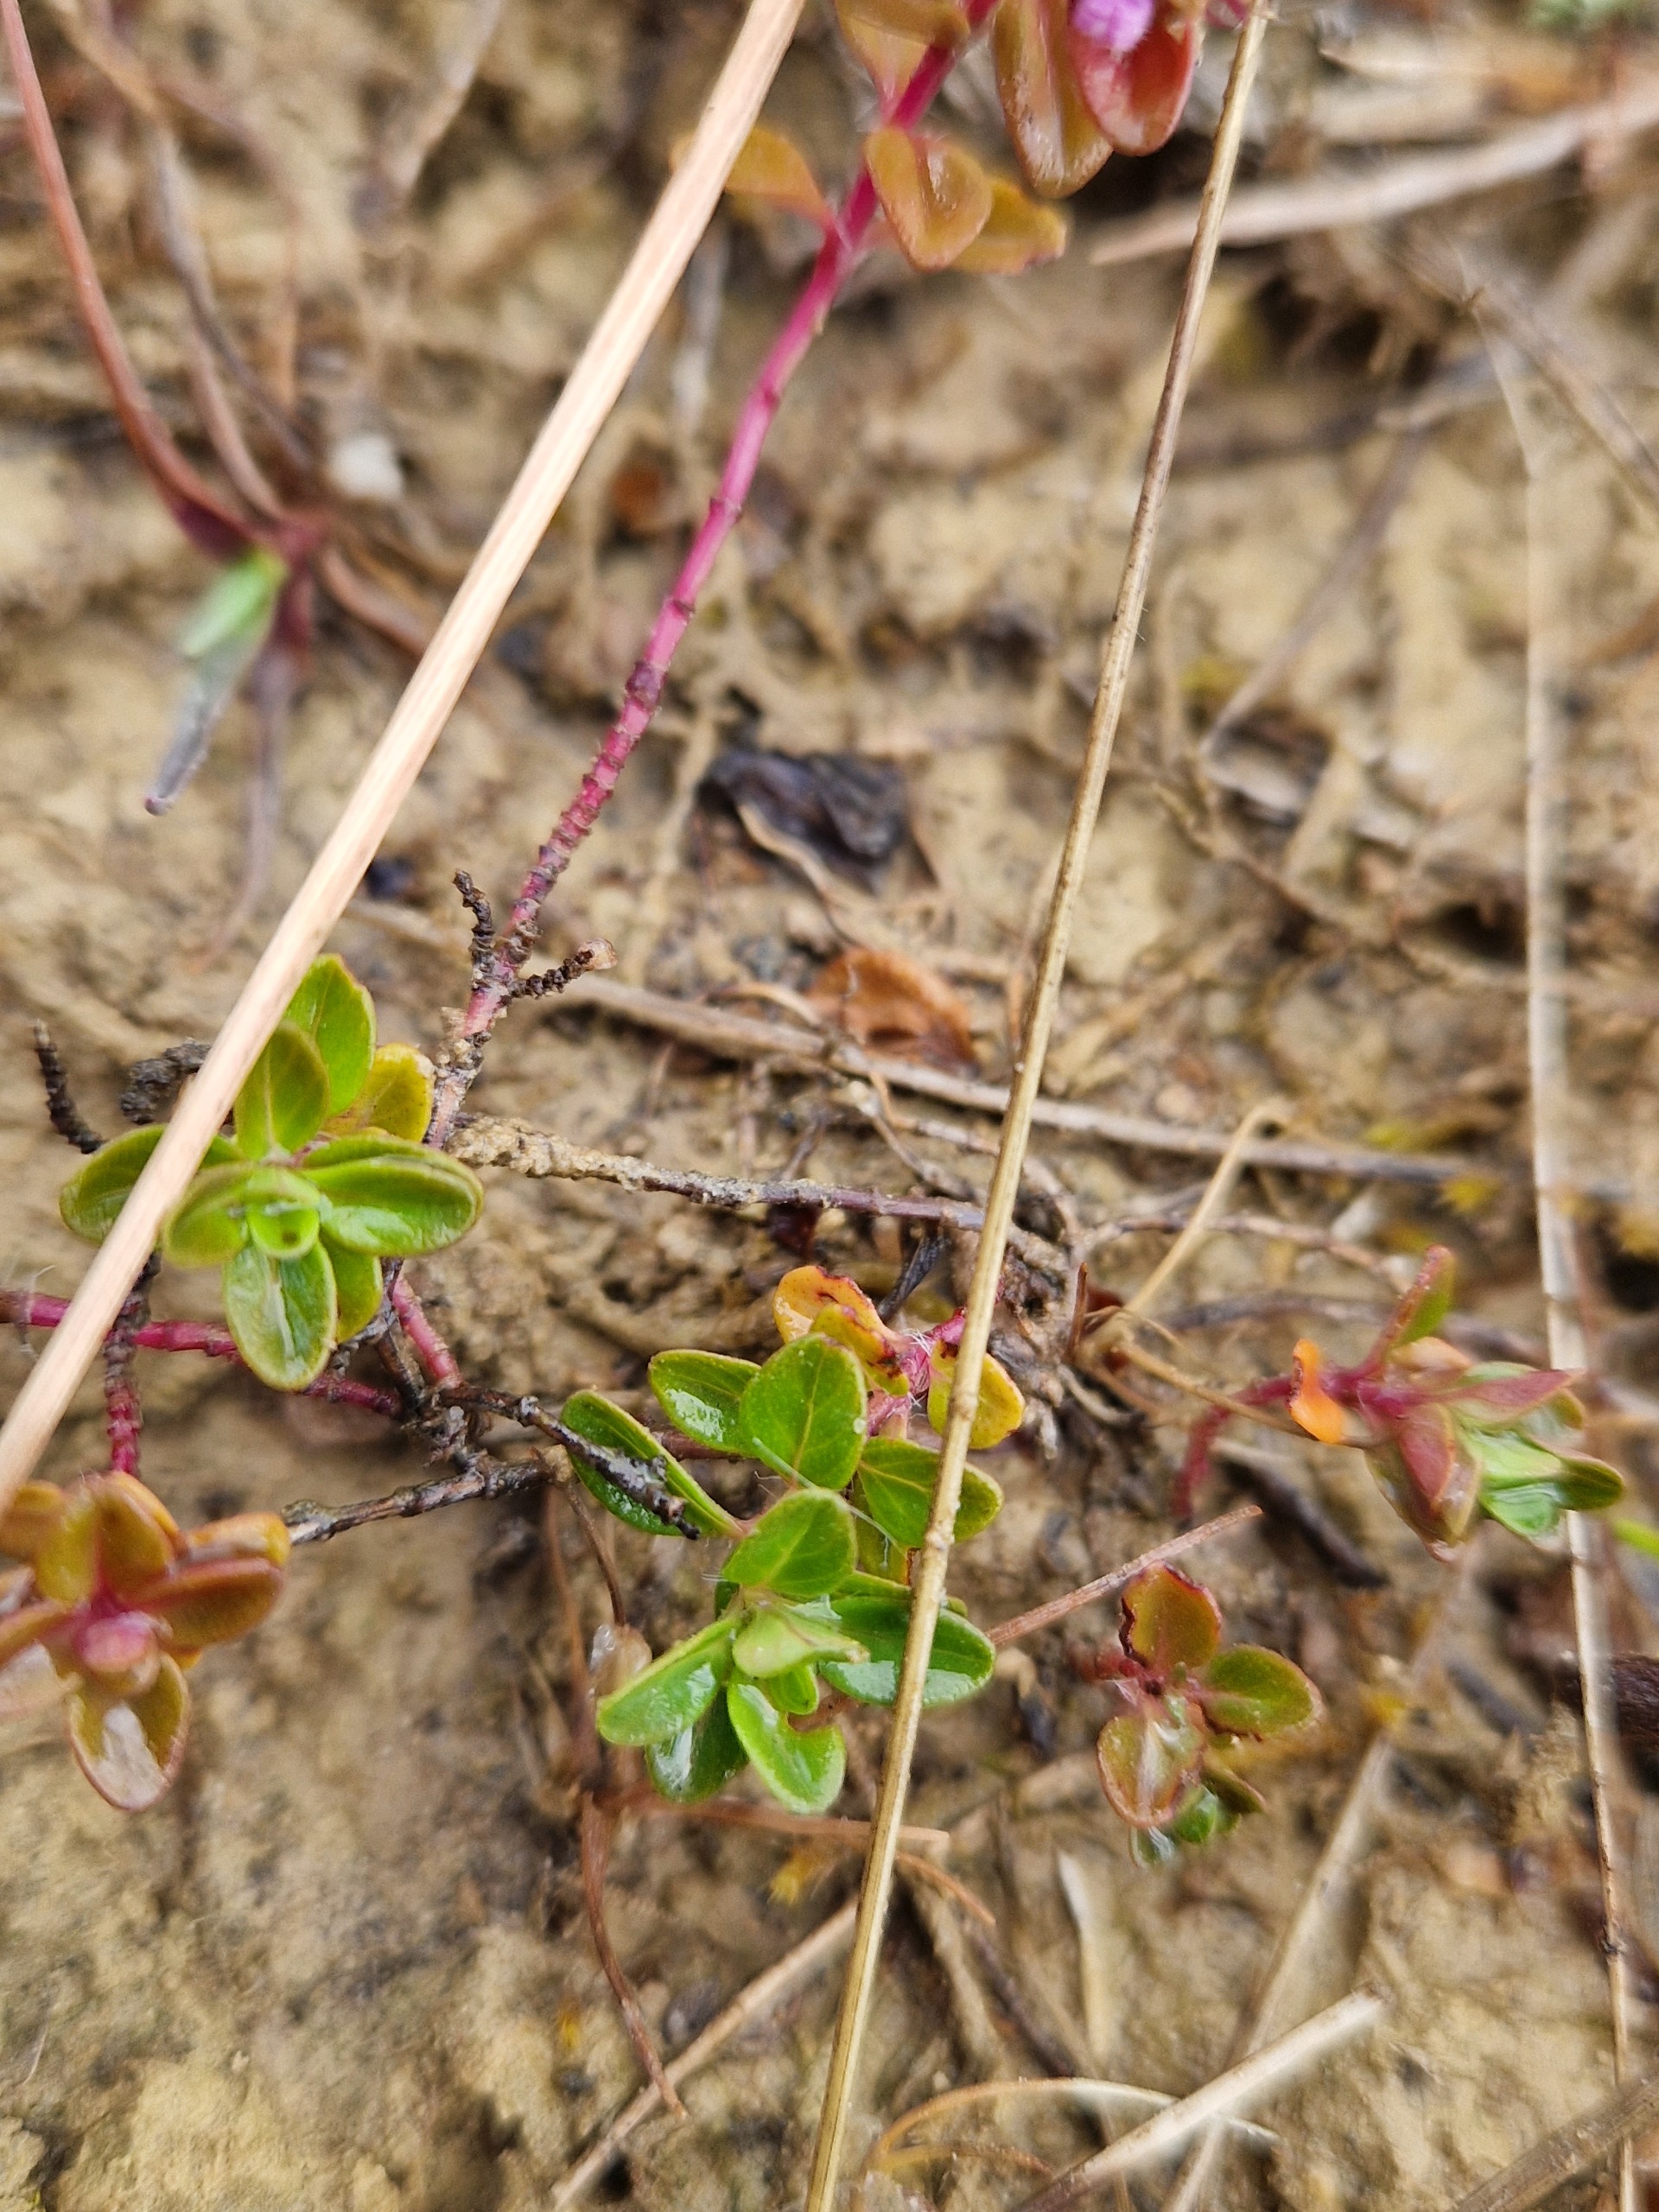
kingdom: Plantae
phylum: Tracheophyta
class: Magnoliopsida
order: Lamiales
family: Lamiaceae
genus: Thymus
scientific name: Thymus pulegioides
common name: Bredbladet timian
